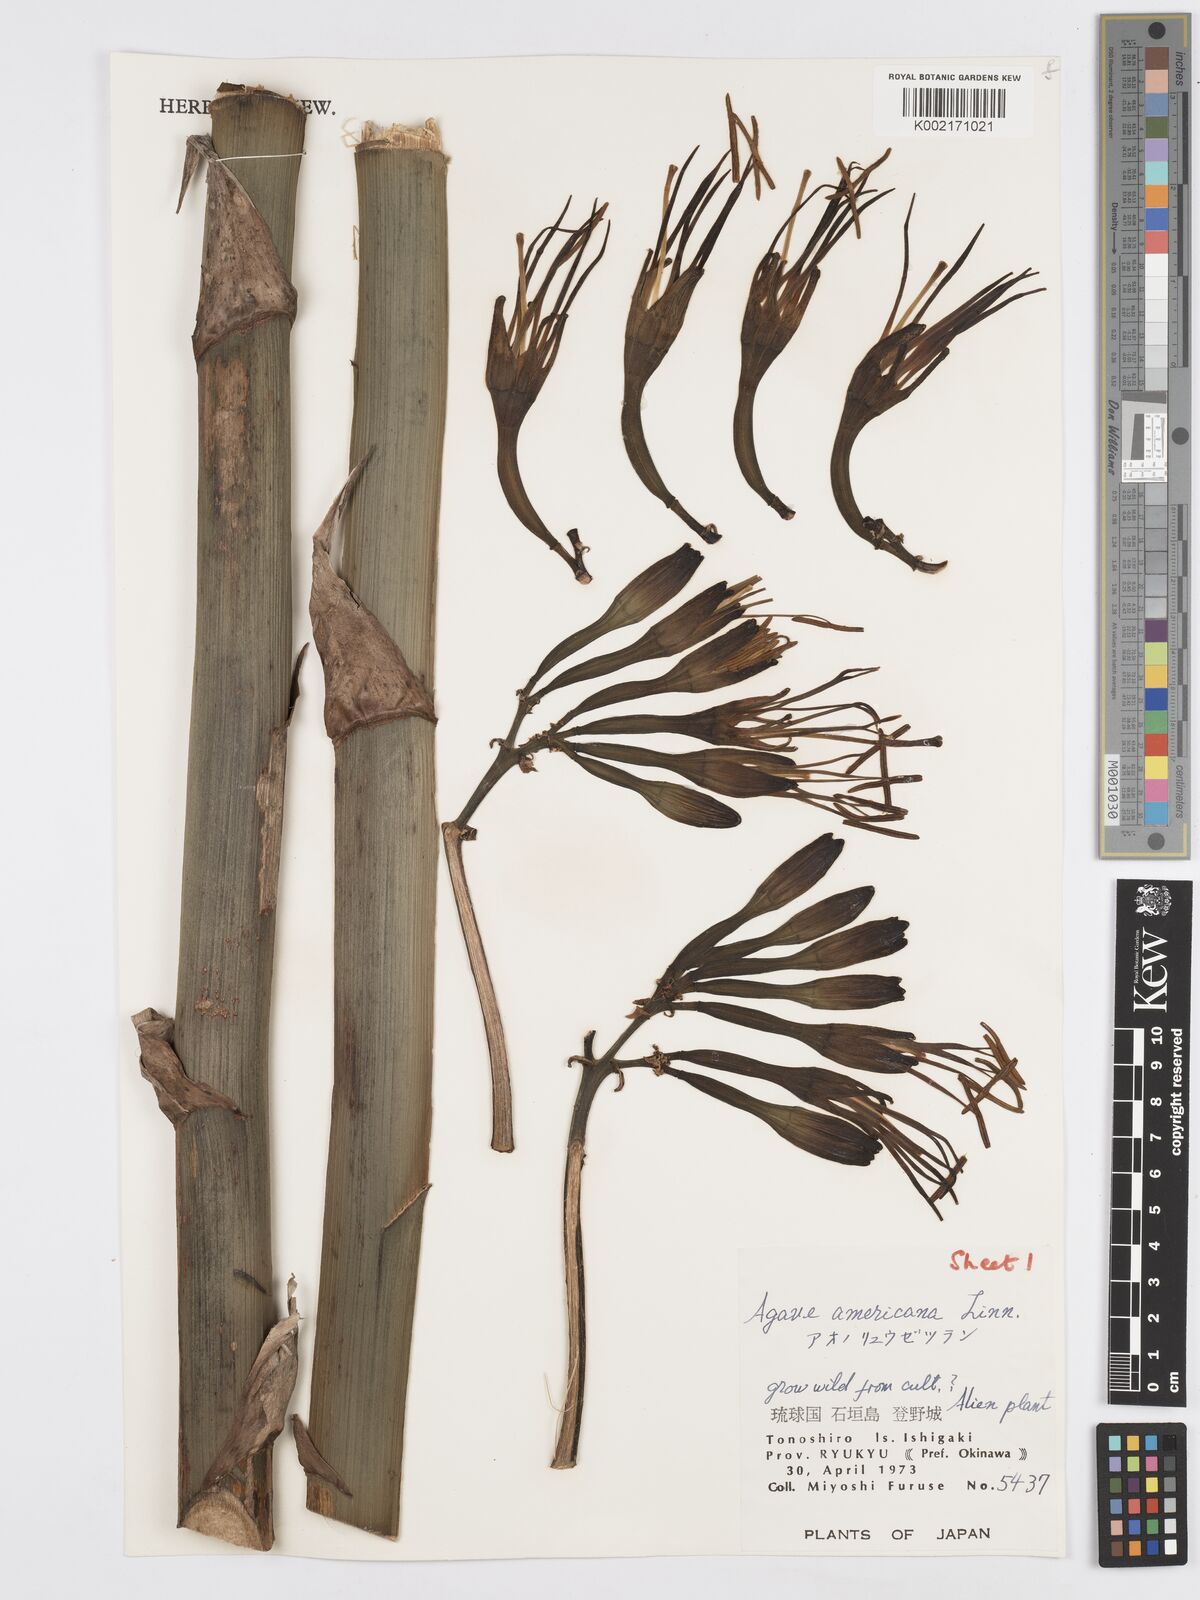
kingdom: Plantae
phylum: Tracheophyta
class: Liliopsida
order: Asparagales
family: Asparagaceae
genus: Agave
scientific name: Agave americana
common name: Centuryplant
